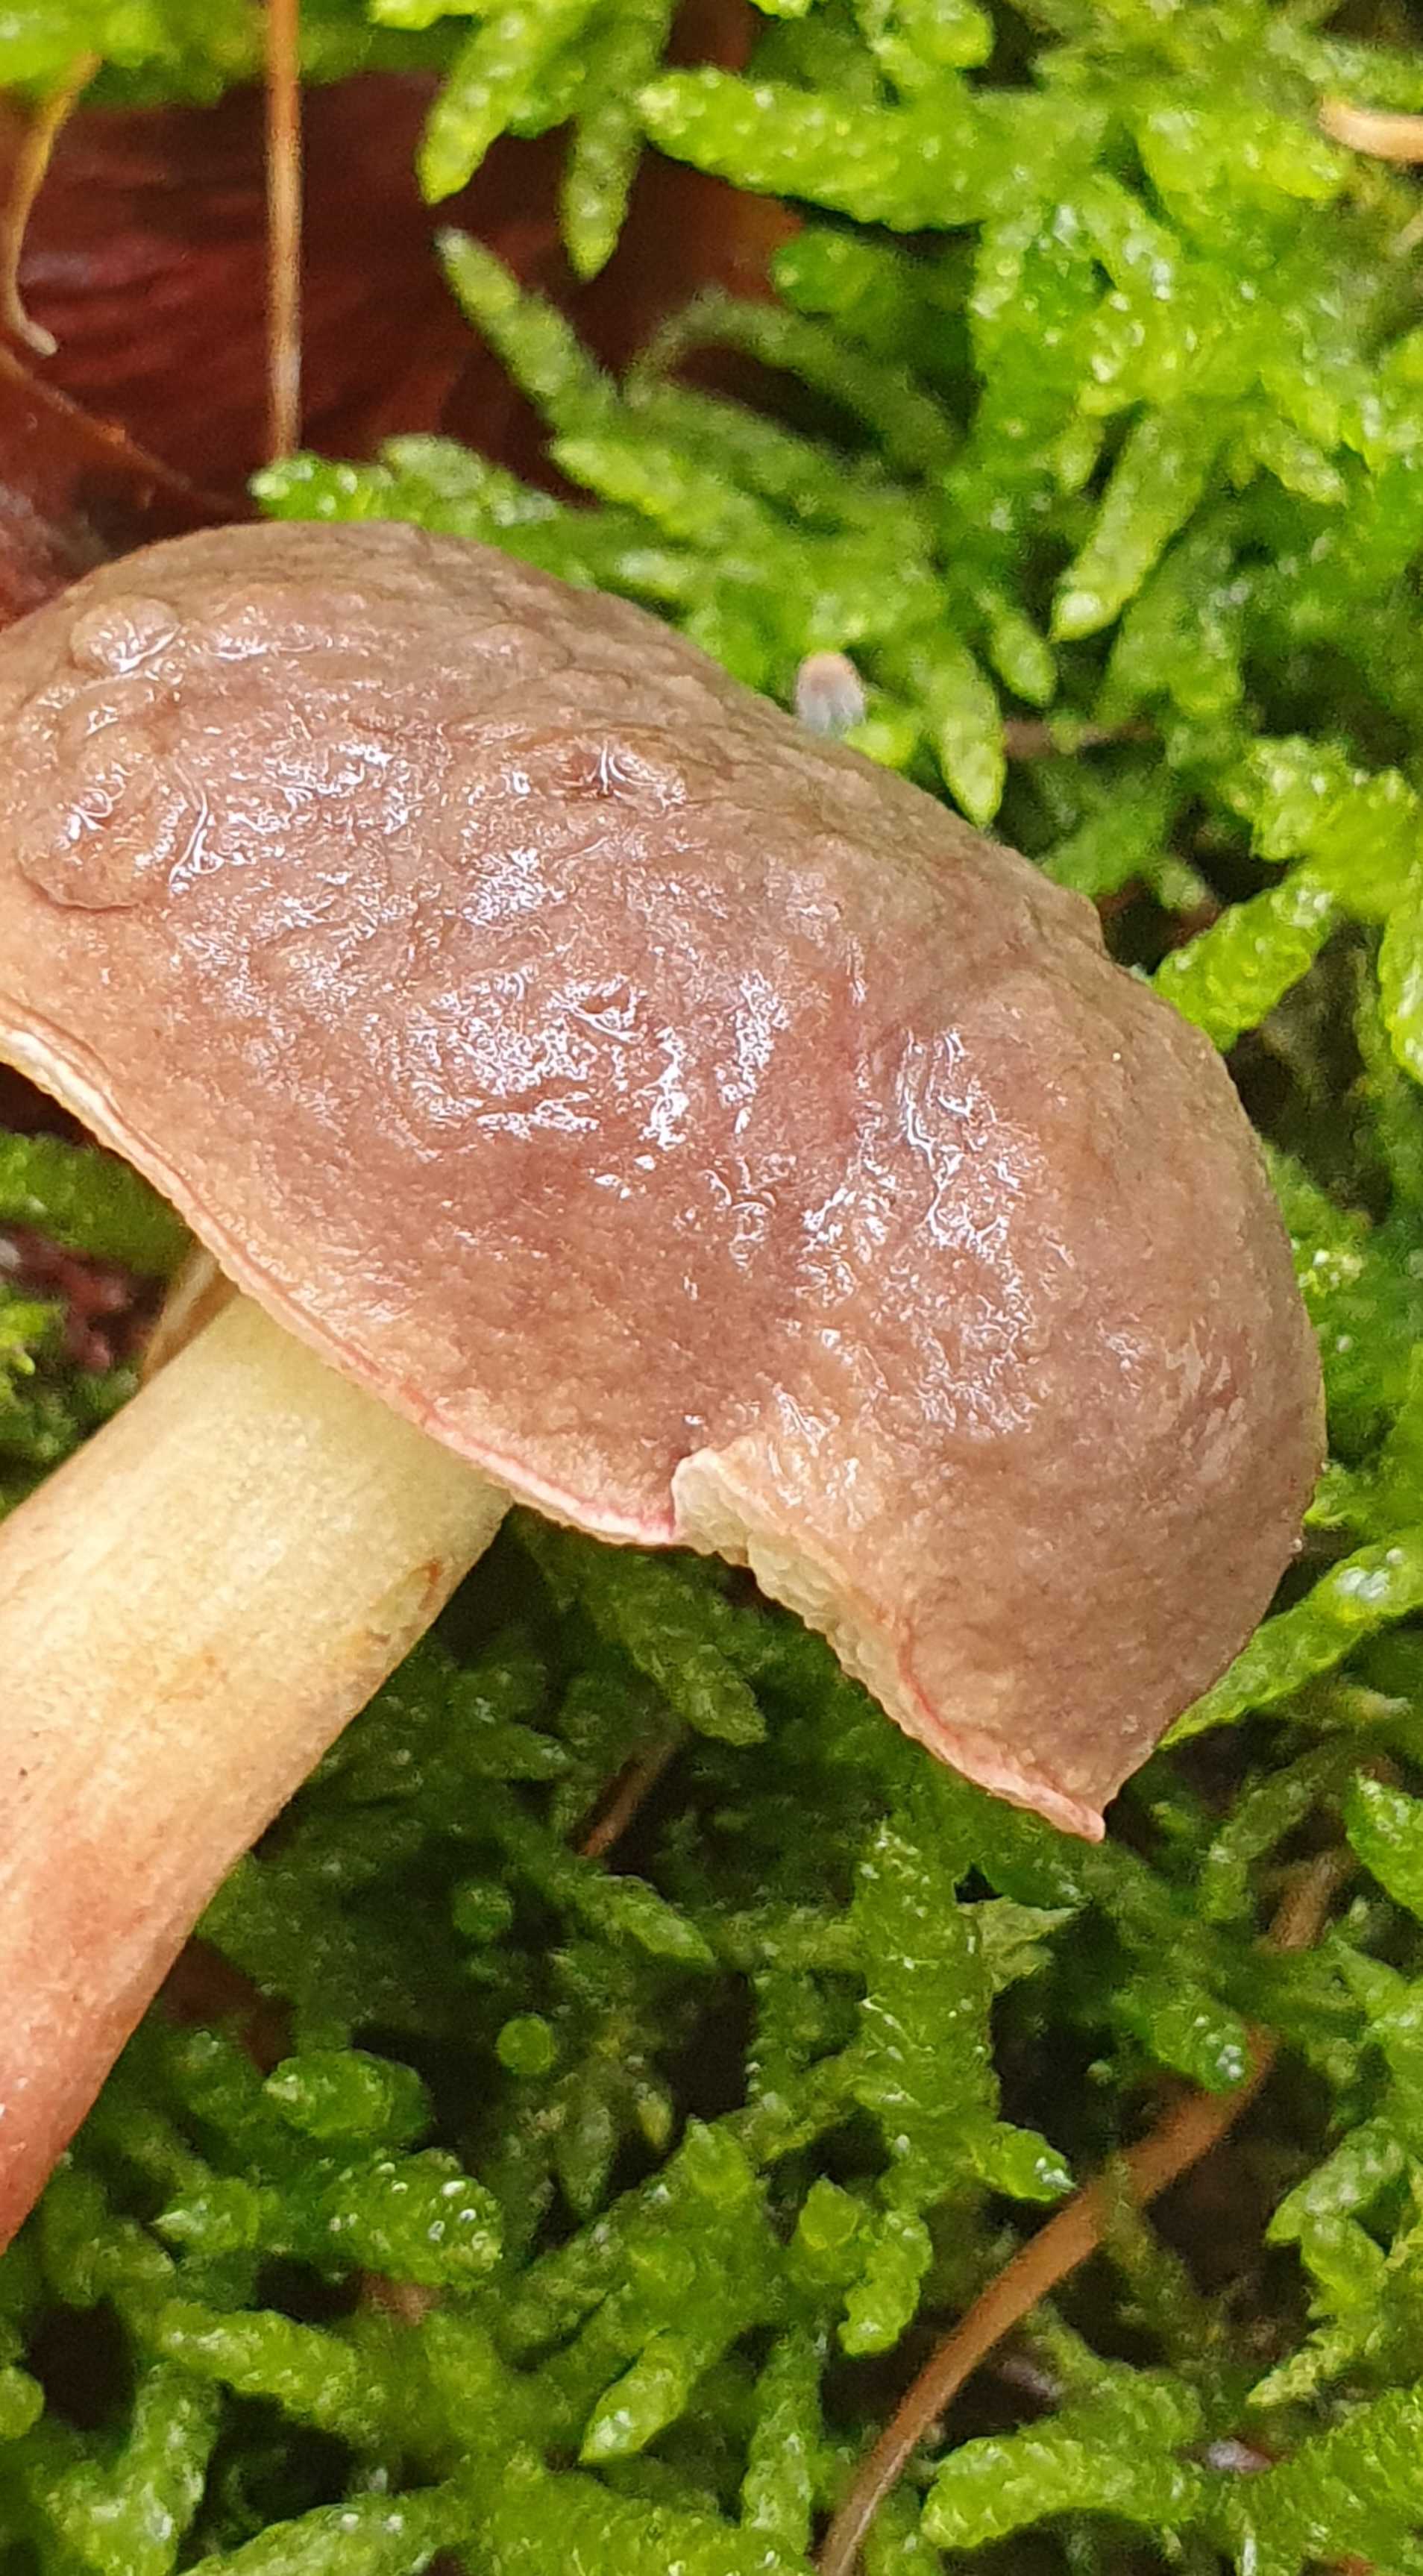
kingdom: Fungi
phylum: Basidiomycota
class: Agaricomycetes
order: Boletales
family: Boletaceae
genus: Xerocomellus
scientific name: Xerocomellus
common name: dværgrørhat
